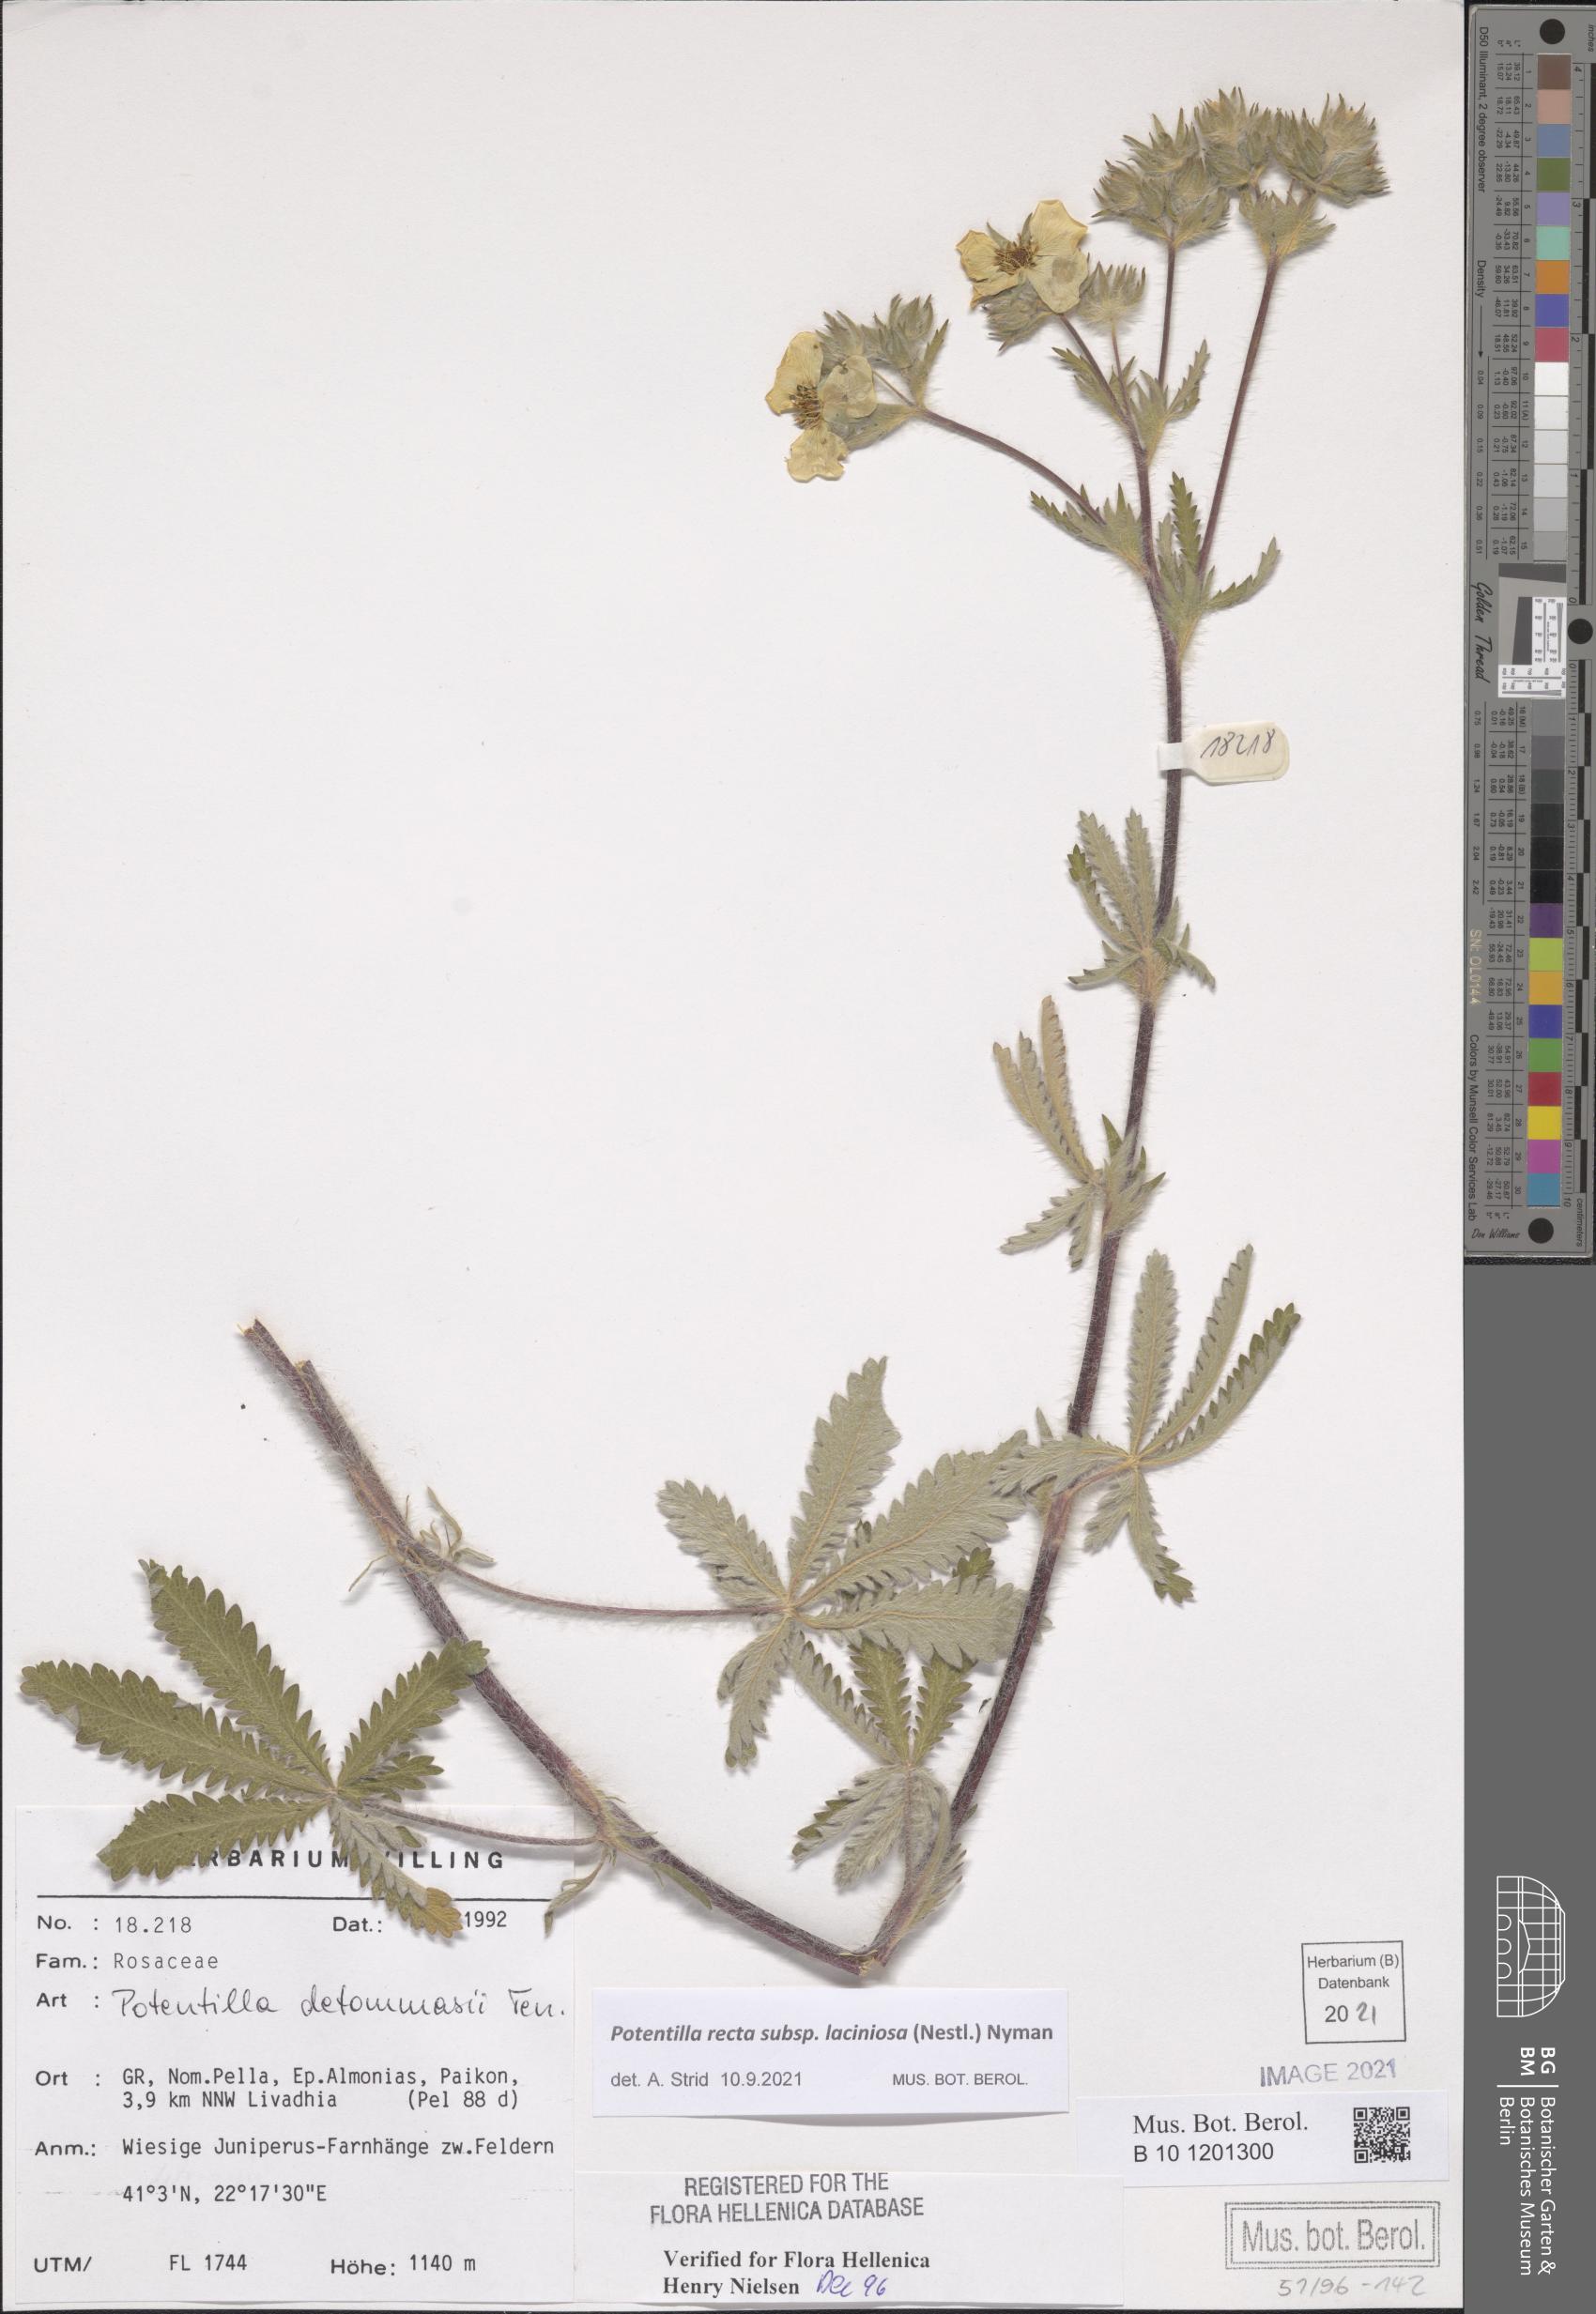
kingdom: Plantae
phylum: Tracheophyta
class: Magnoliopsida
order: Rosales
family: Rosaceae
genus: Potentilla
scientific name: Potentilla recta
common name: Sulphur cinquefoil
